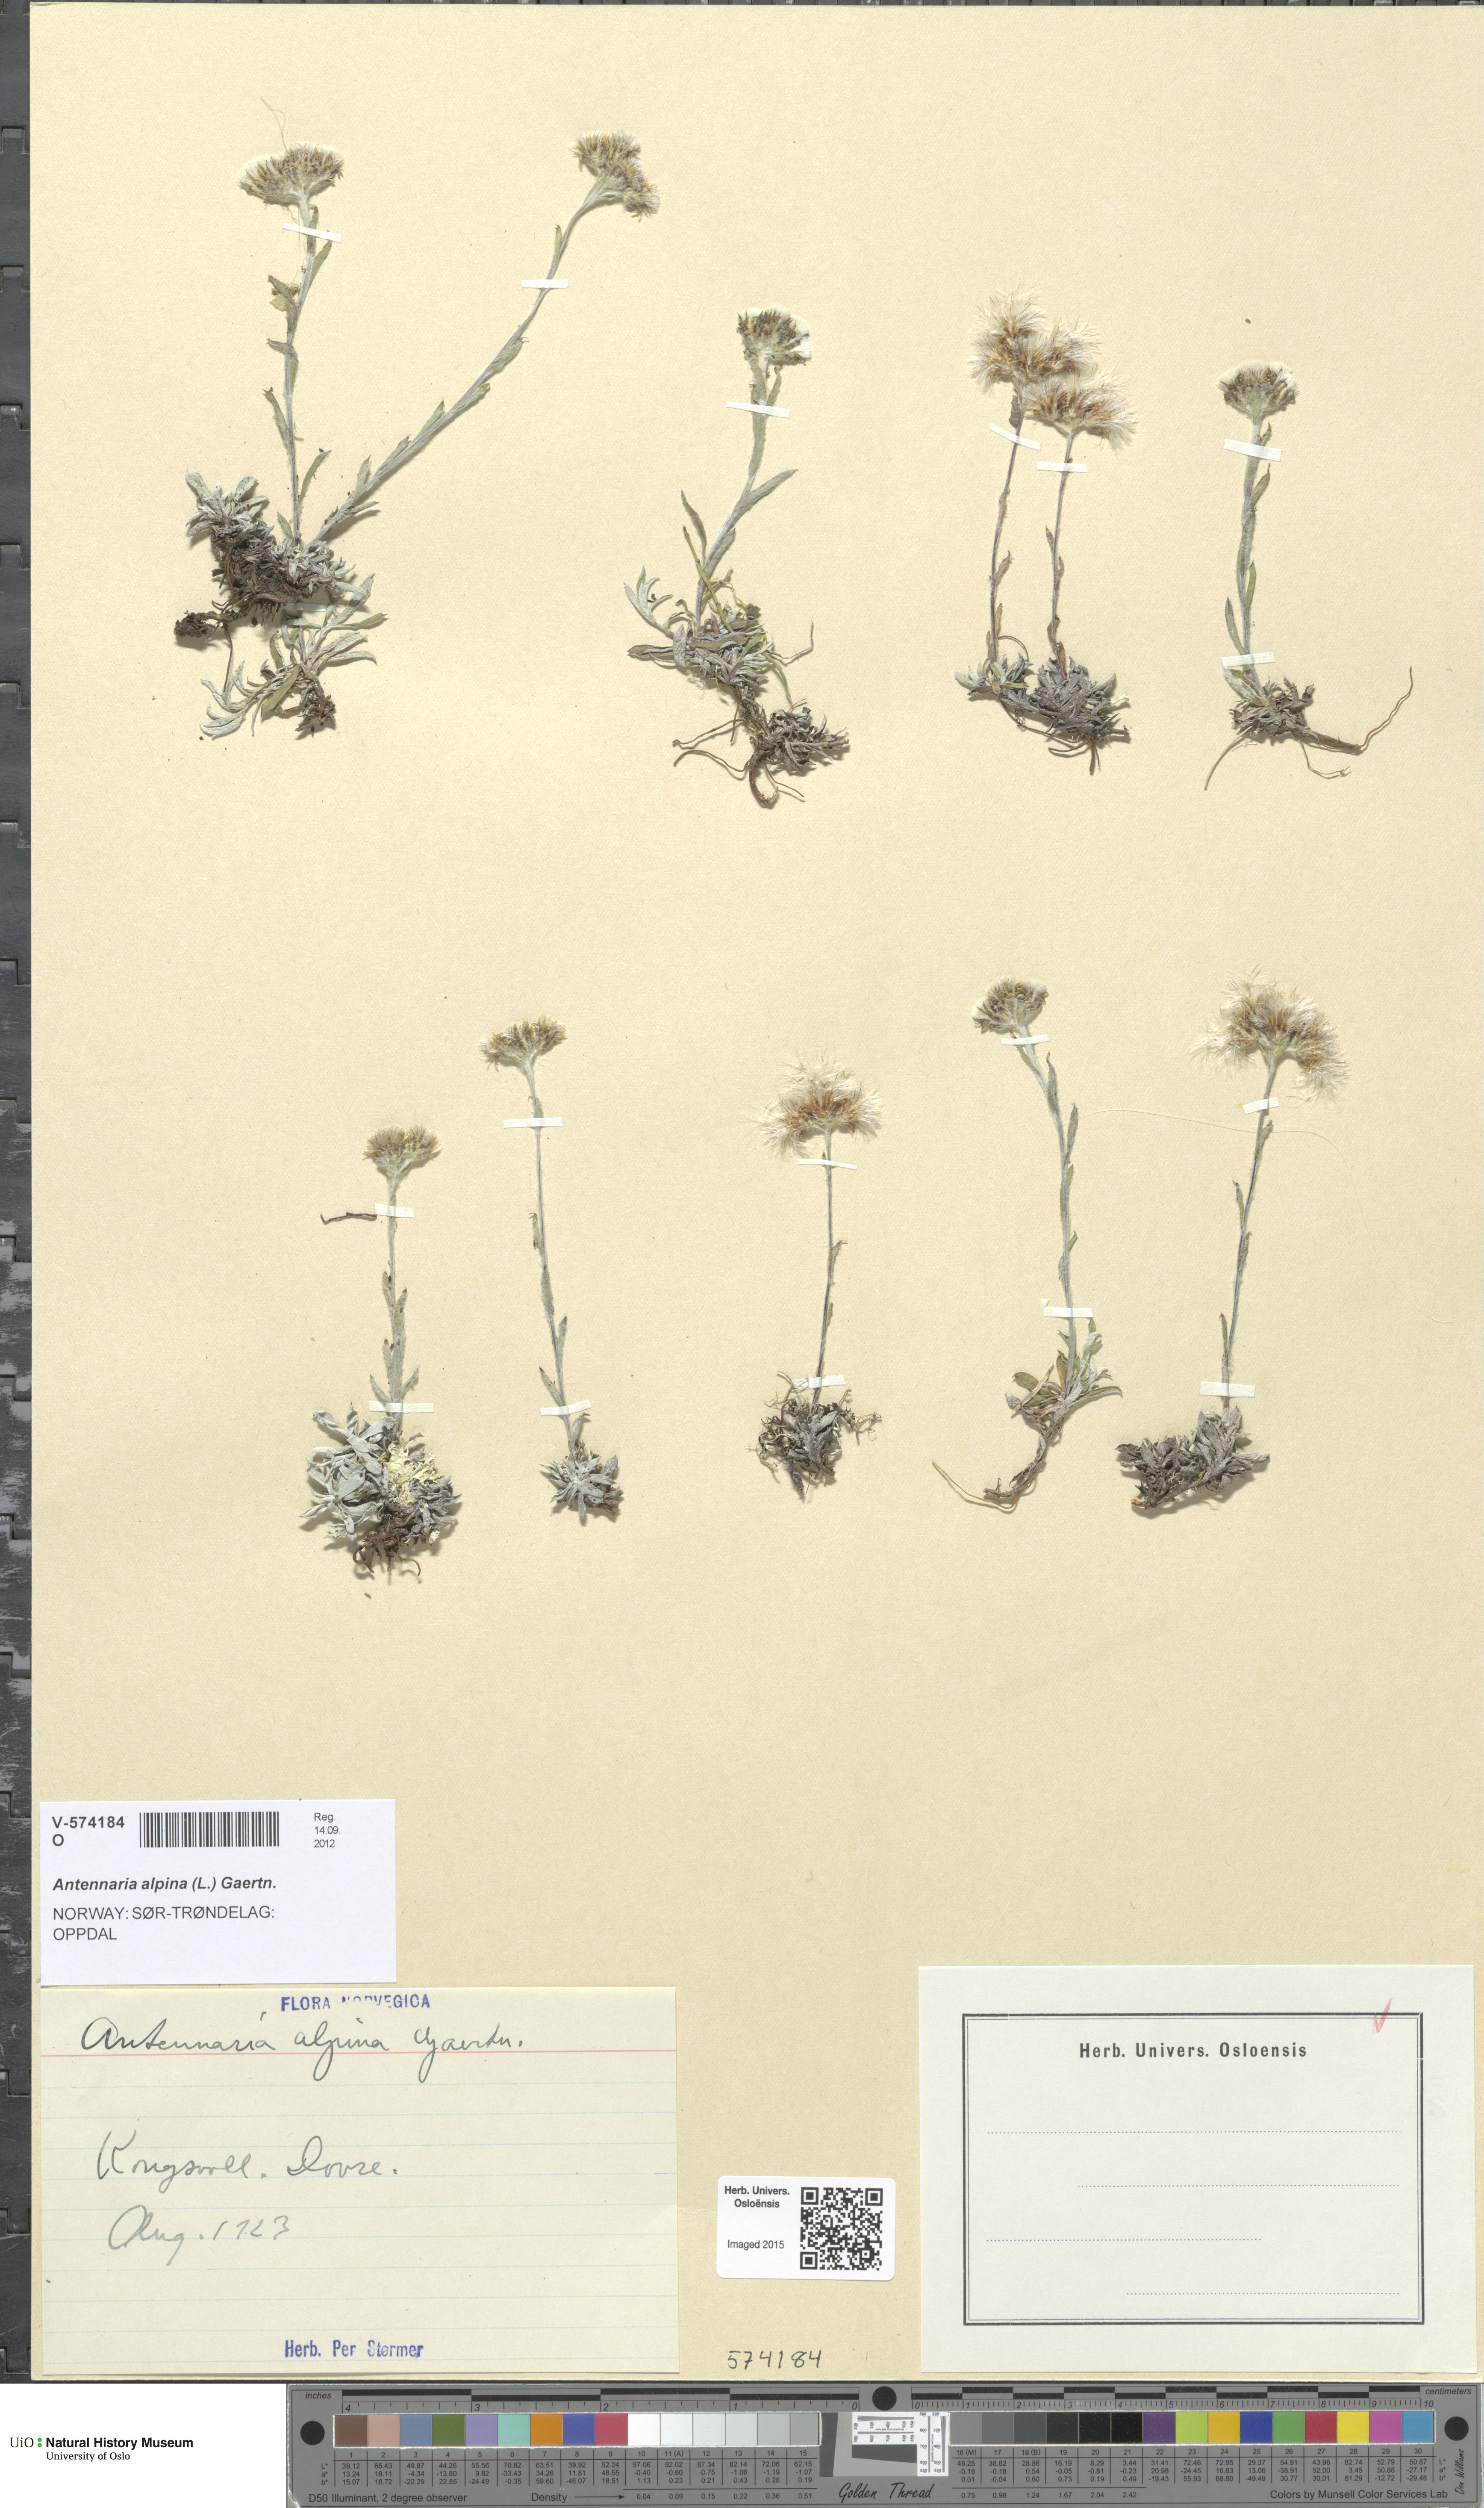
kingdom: Plantae
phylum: Tracheophyta
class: Magnoliopsida
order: Asterales
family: Asteraceae
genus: Antennaria
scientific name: Antennaria alpina
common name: Alpine pussytoes
